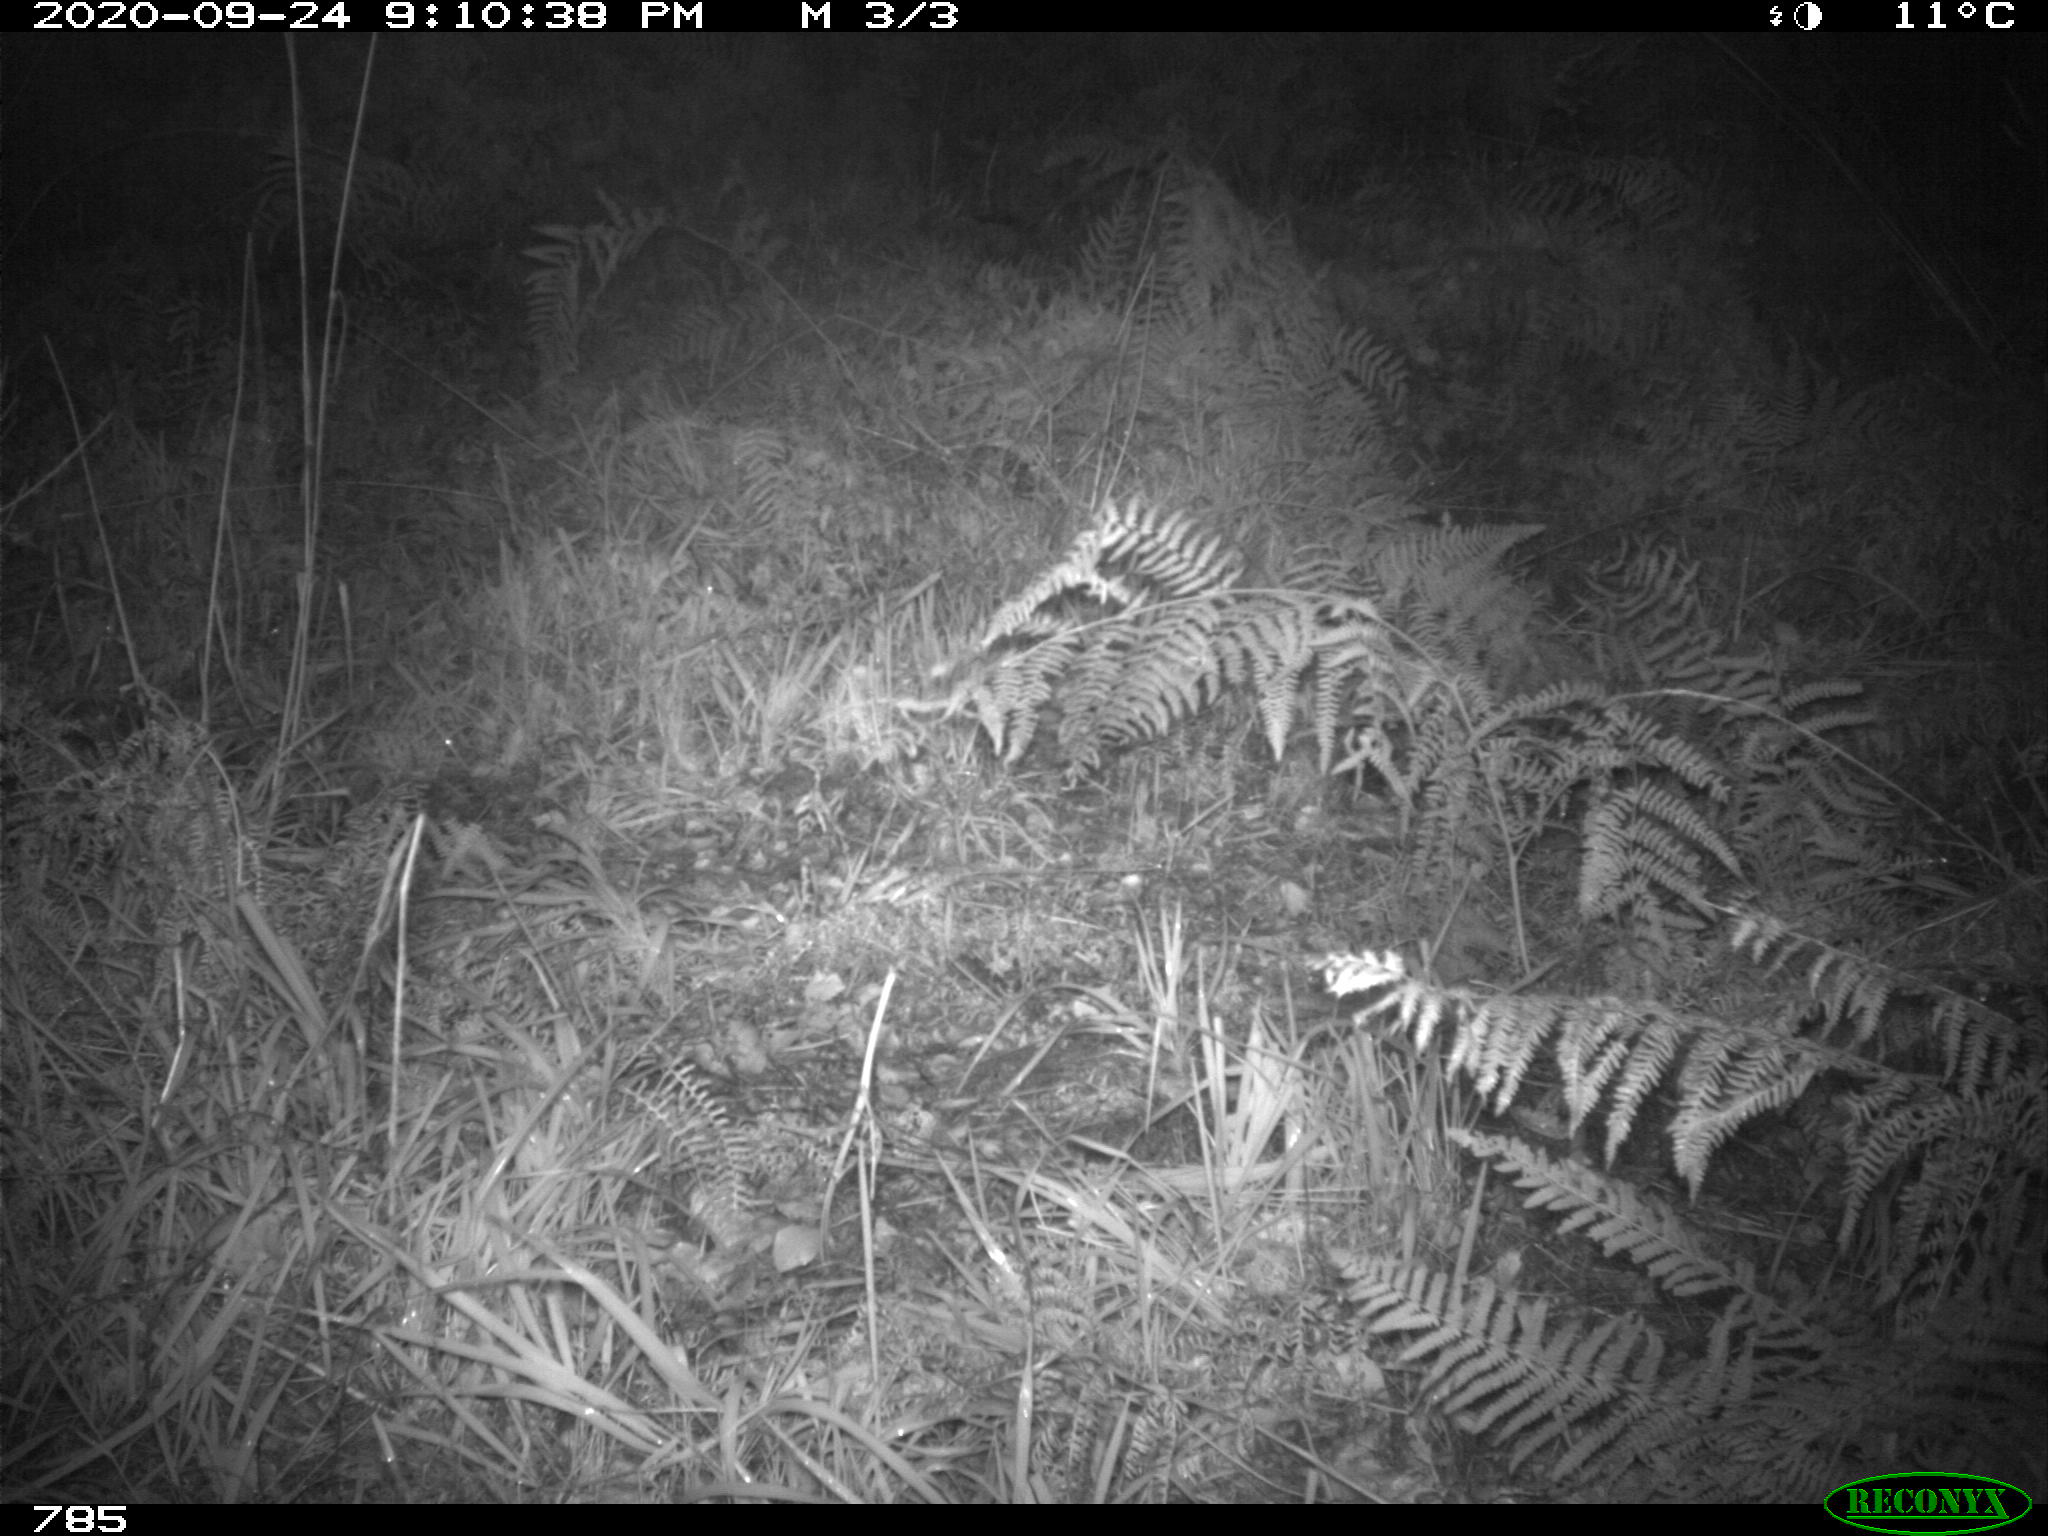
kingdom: Animalia
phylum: Chordata
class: Mammalia
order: Artiodactyla
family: Suidae
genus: Sus
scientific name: Sus scrofa
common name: Wild boar
